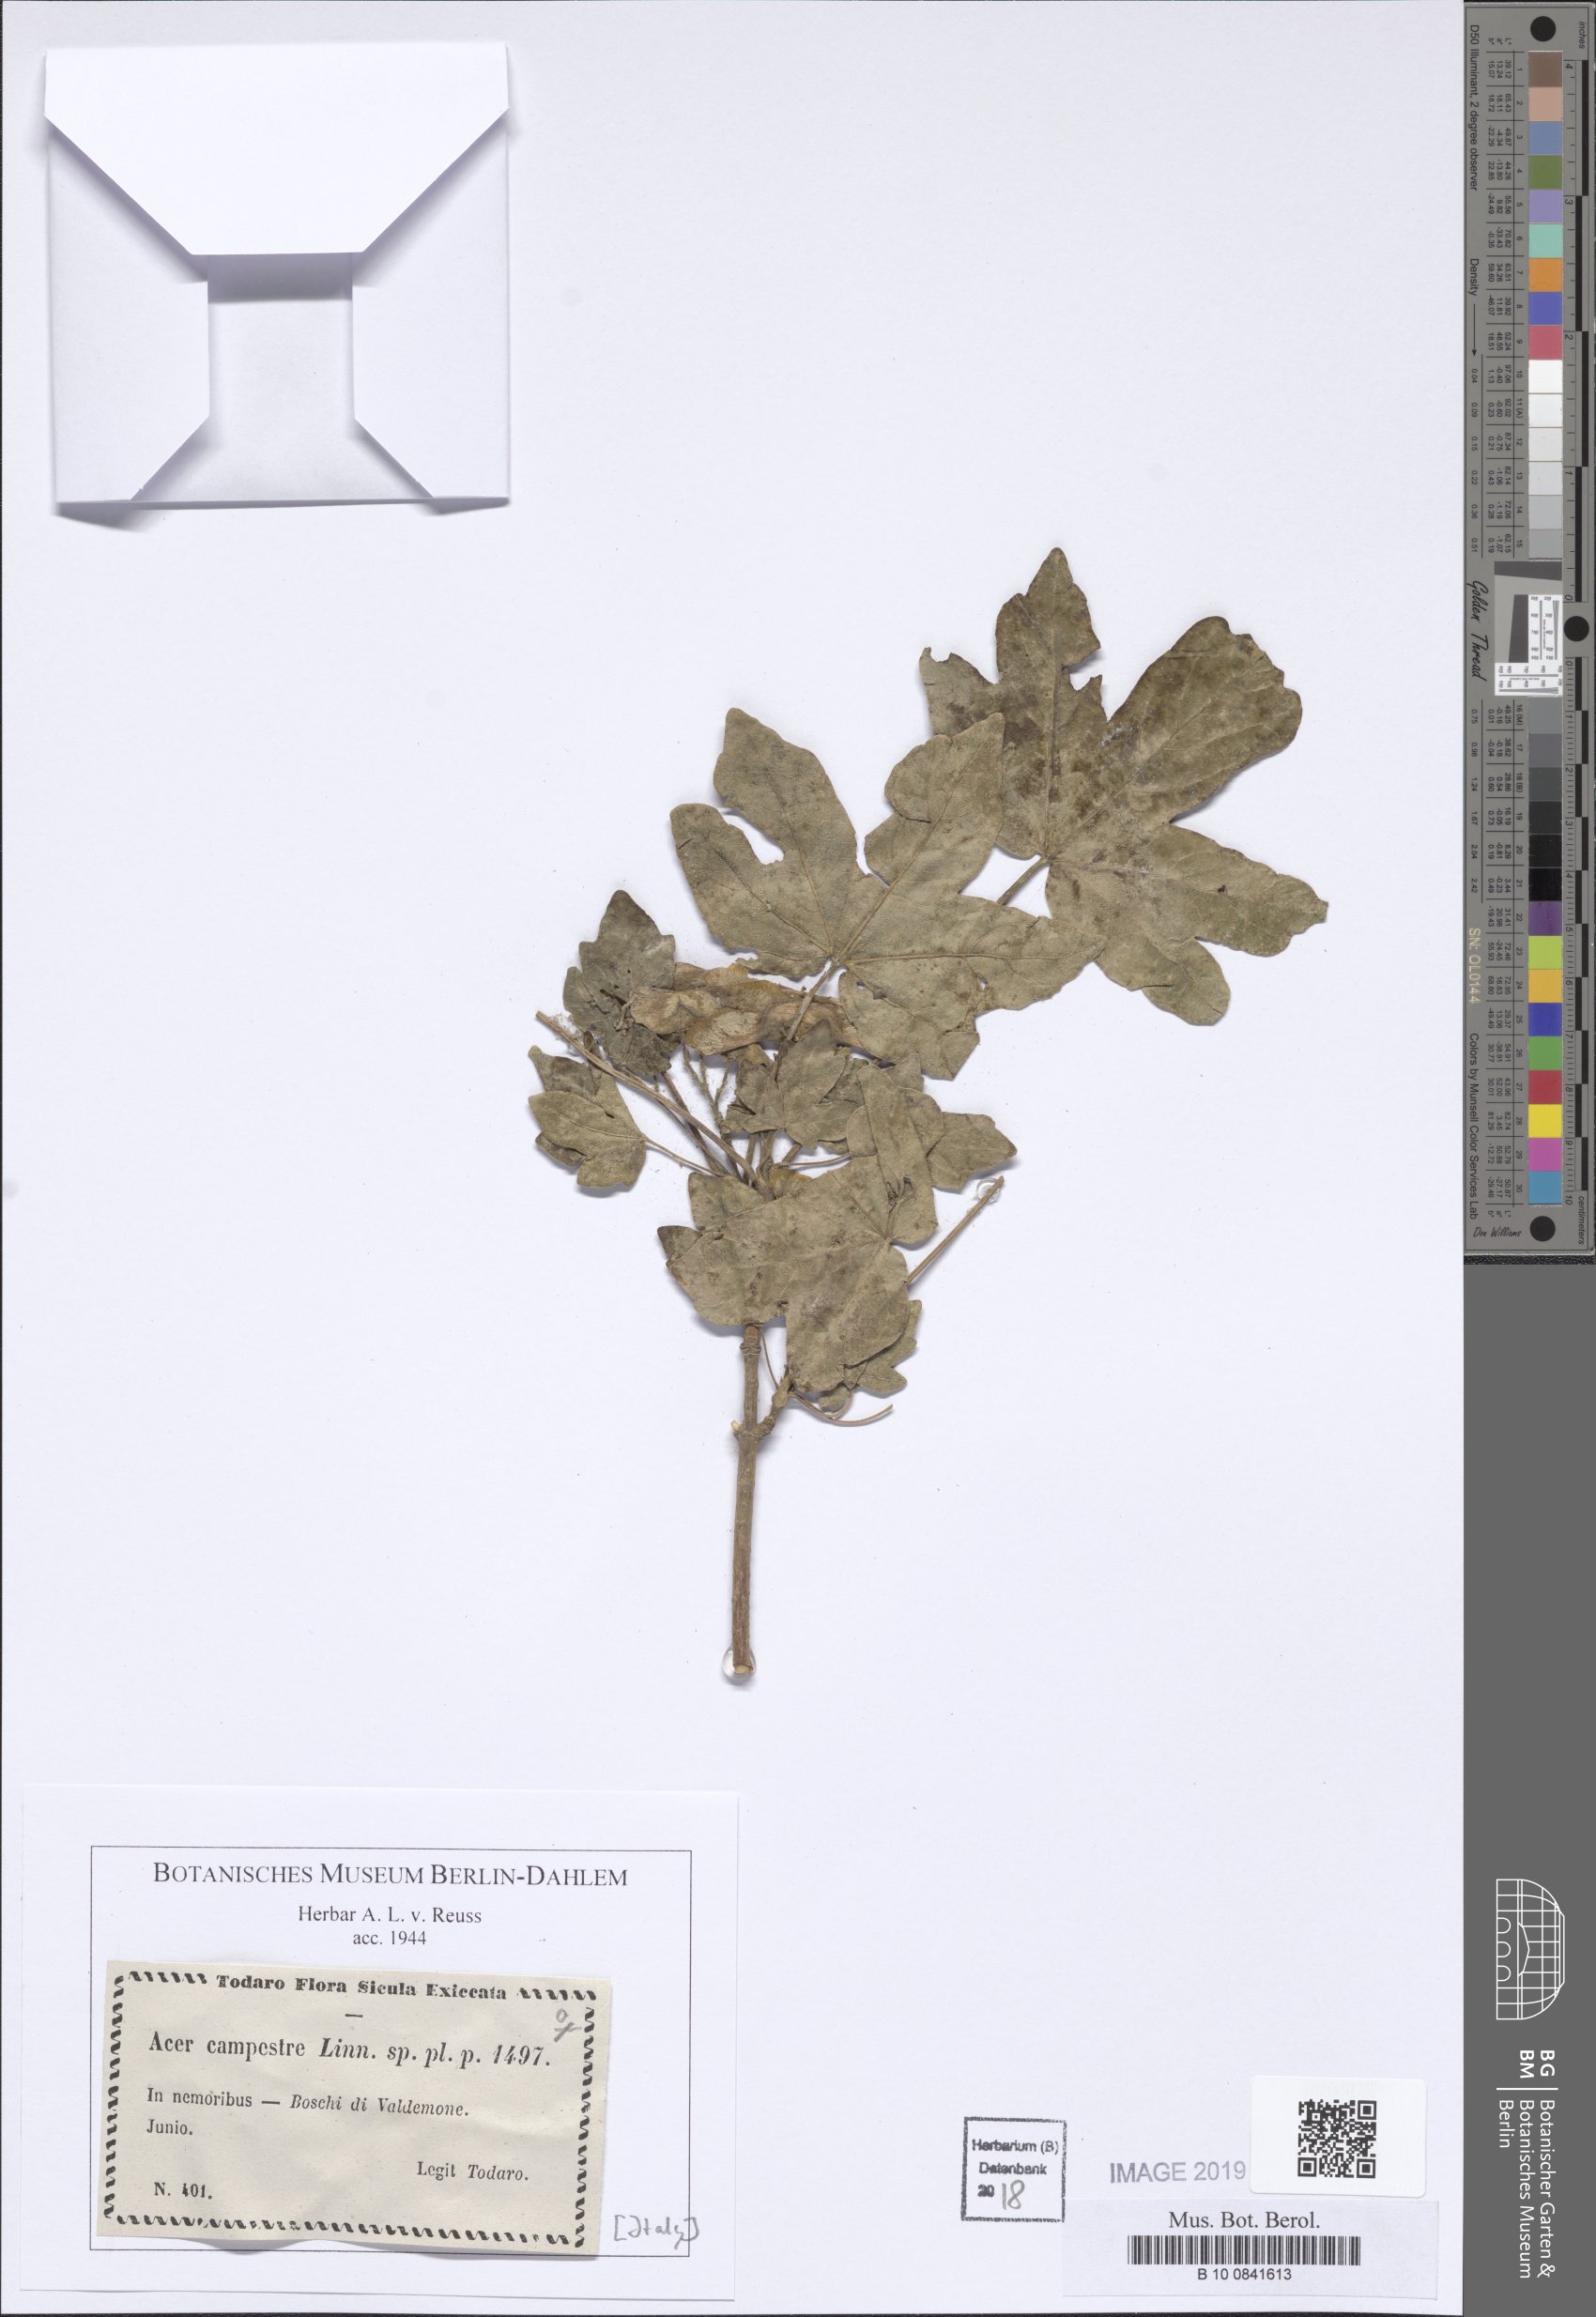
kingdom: Plantae
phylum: Tracheophyta
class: Magnoliopsida
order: Sapindales
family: Sapindaceae
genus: Acer
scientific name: Acer campestre
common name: Field maple
